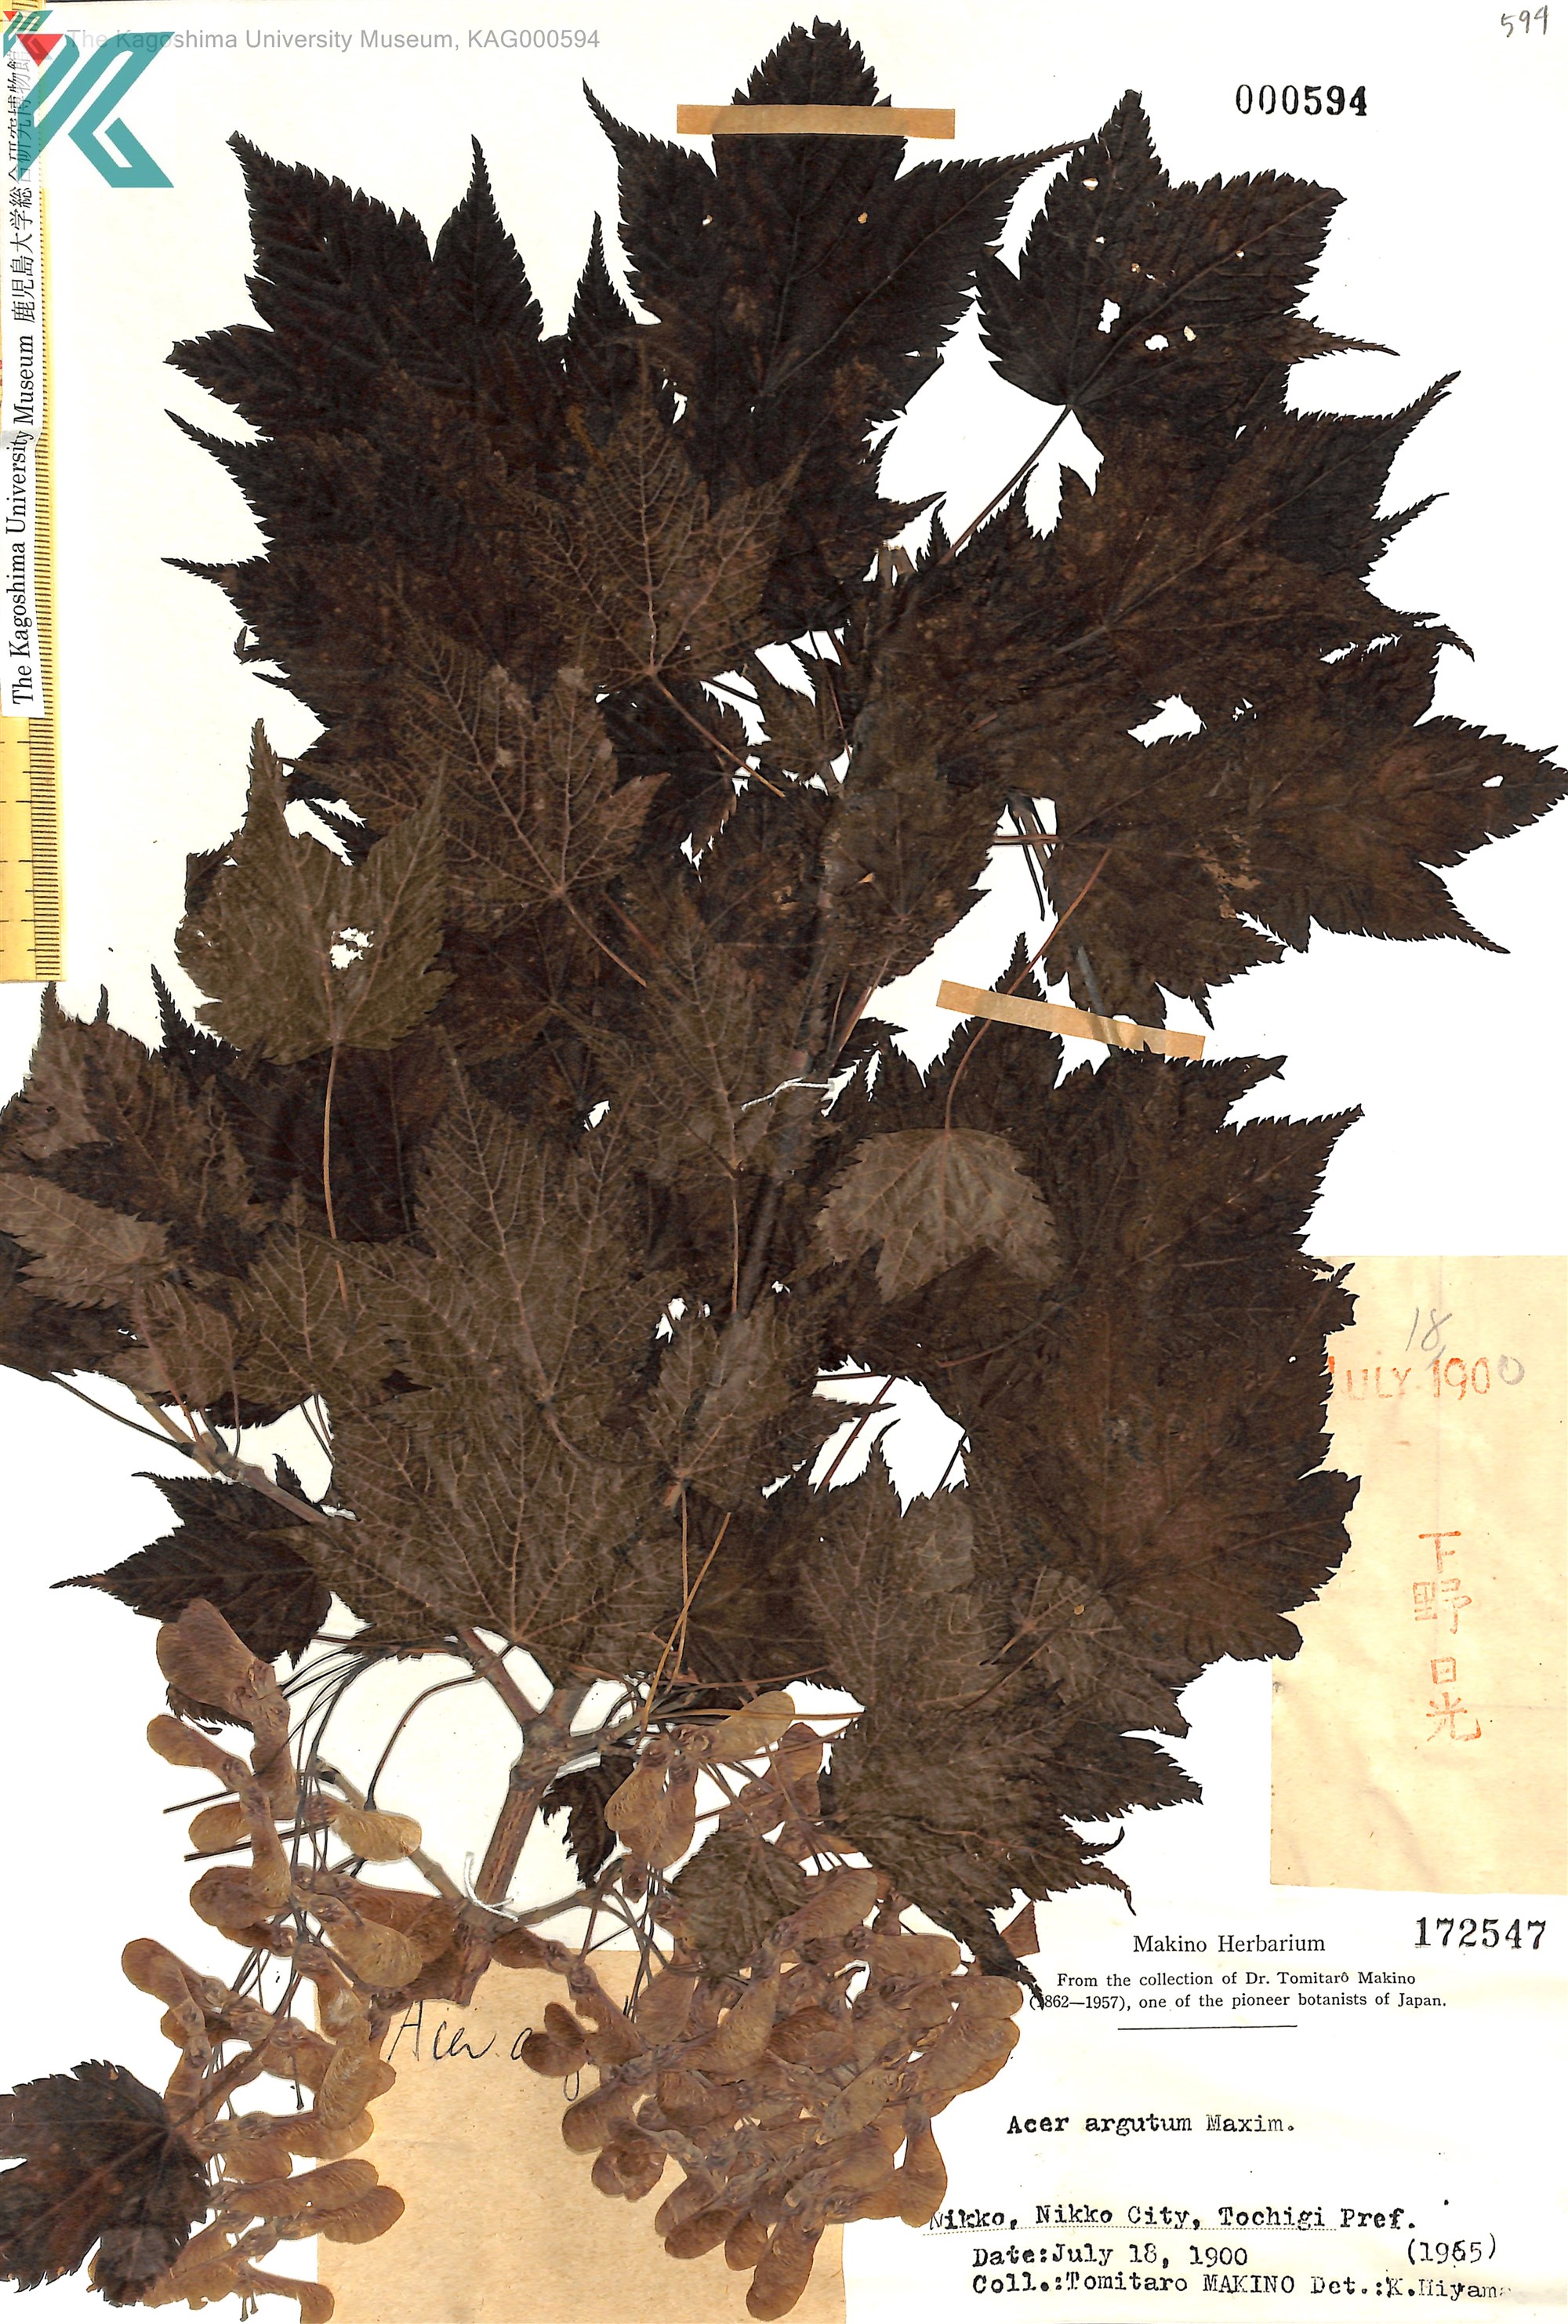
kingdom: Plantae
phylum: Tracheophyta
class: Magnoliopsida
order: Sapindales
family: Sapindaceae
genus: Acer
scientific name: Acer argutum
